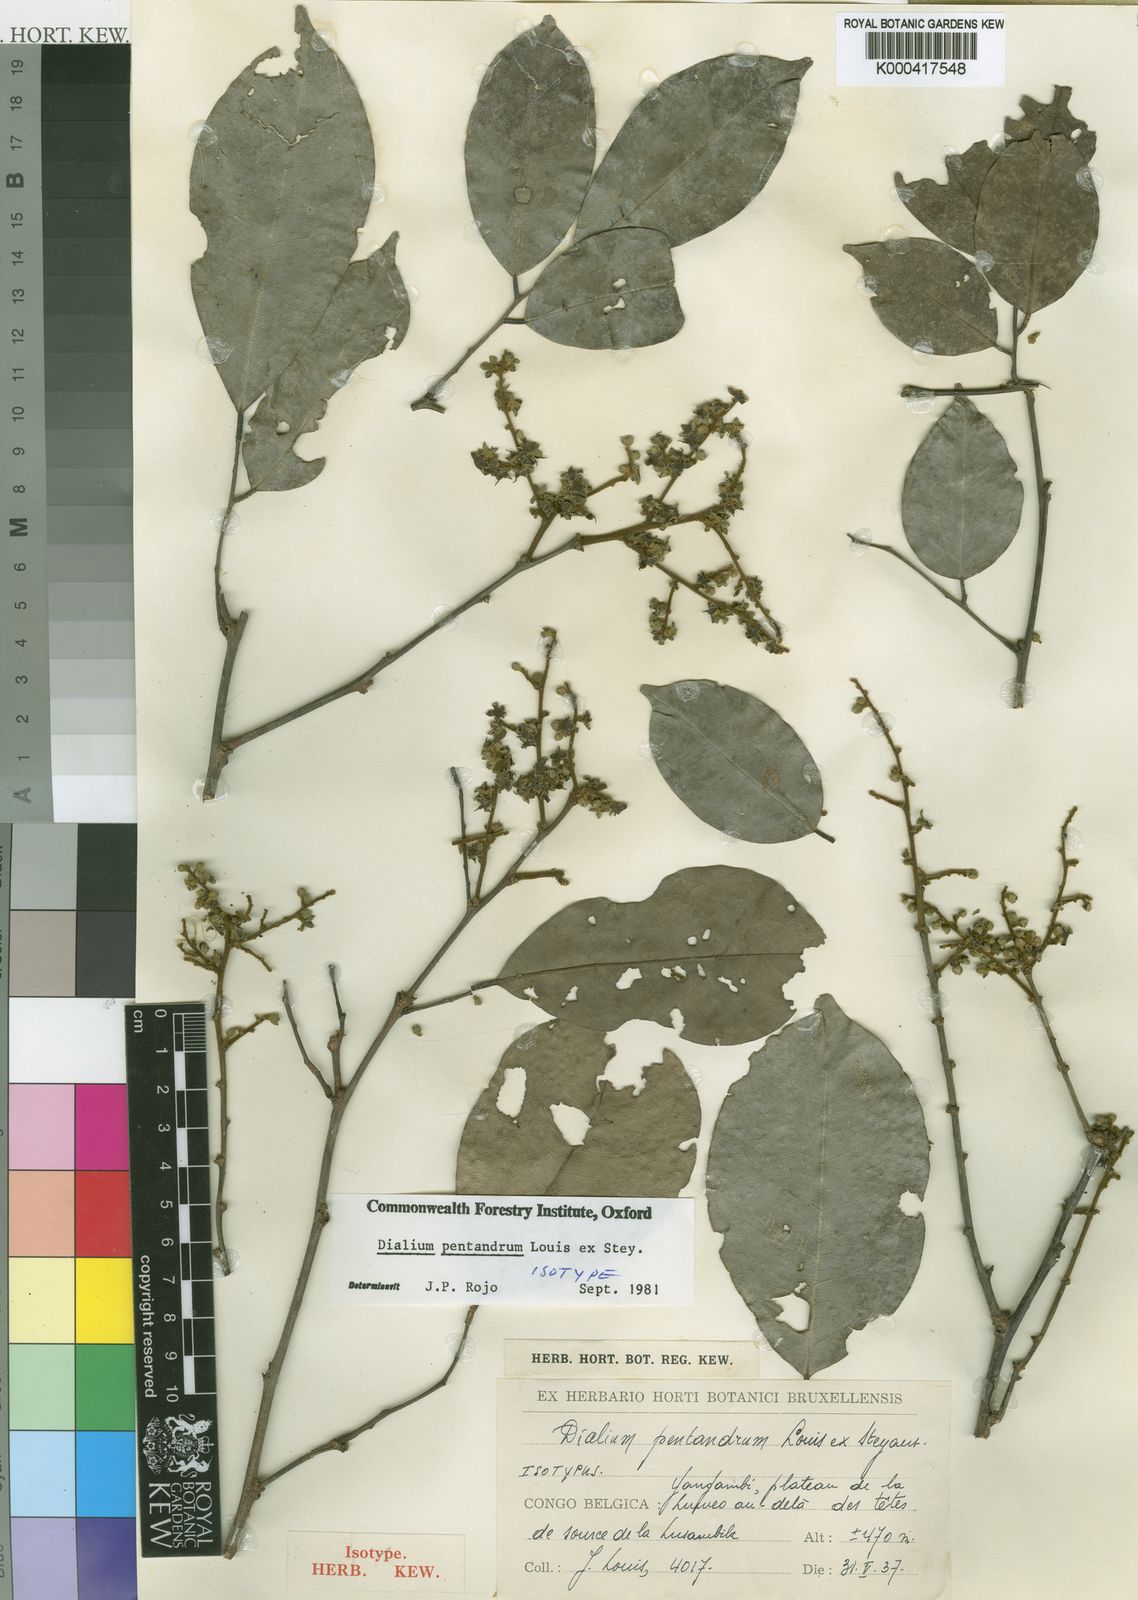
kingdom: Plantae
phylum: Tracheophyta
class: Magnoliopsida
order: Fabales
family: Fabaceae
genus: Dialium
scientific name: Dialium
